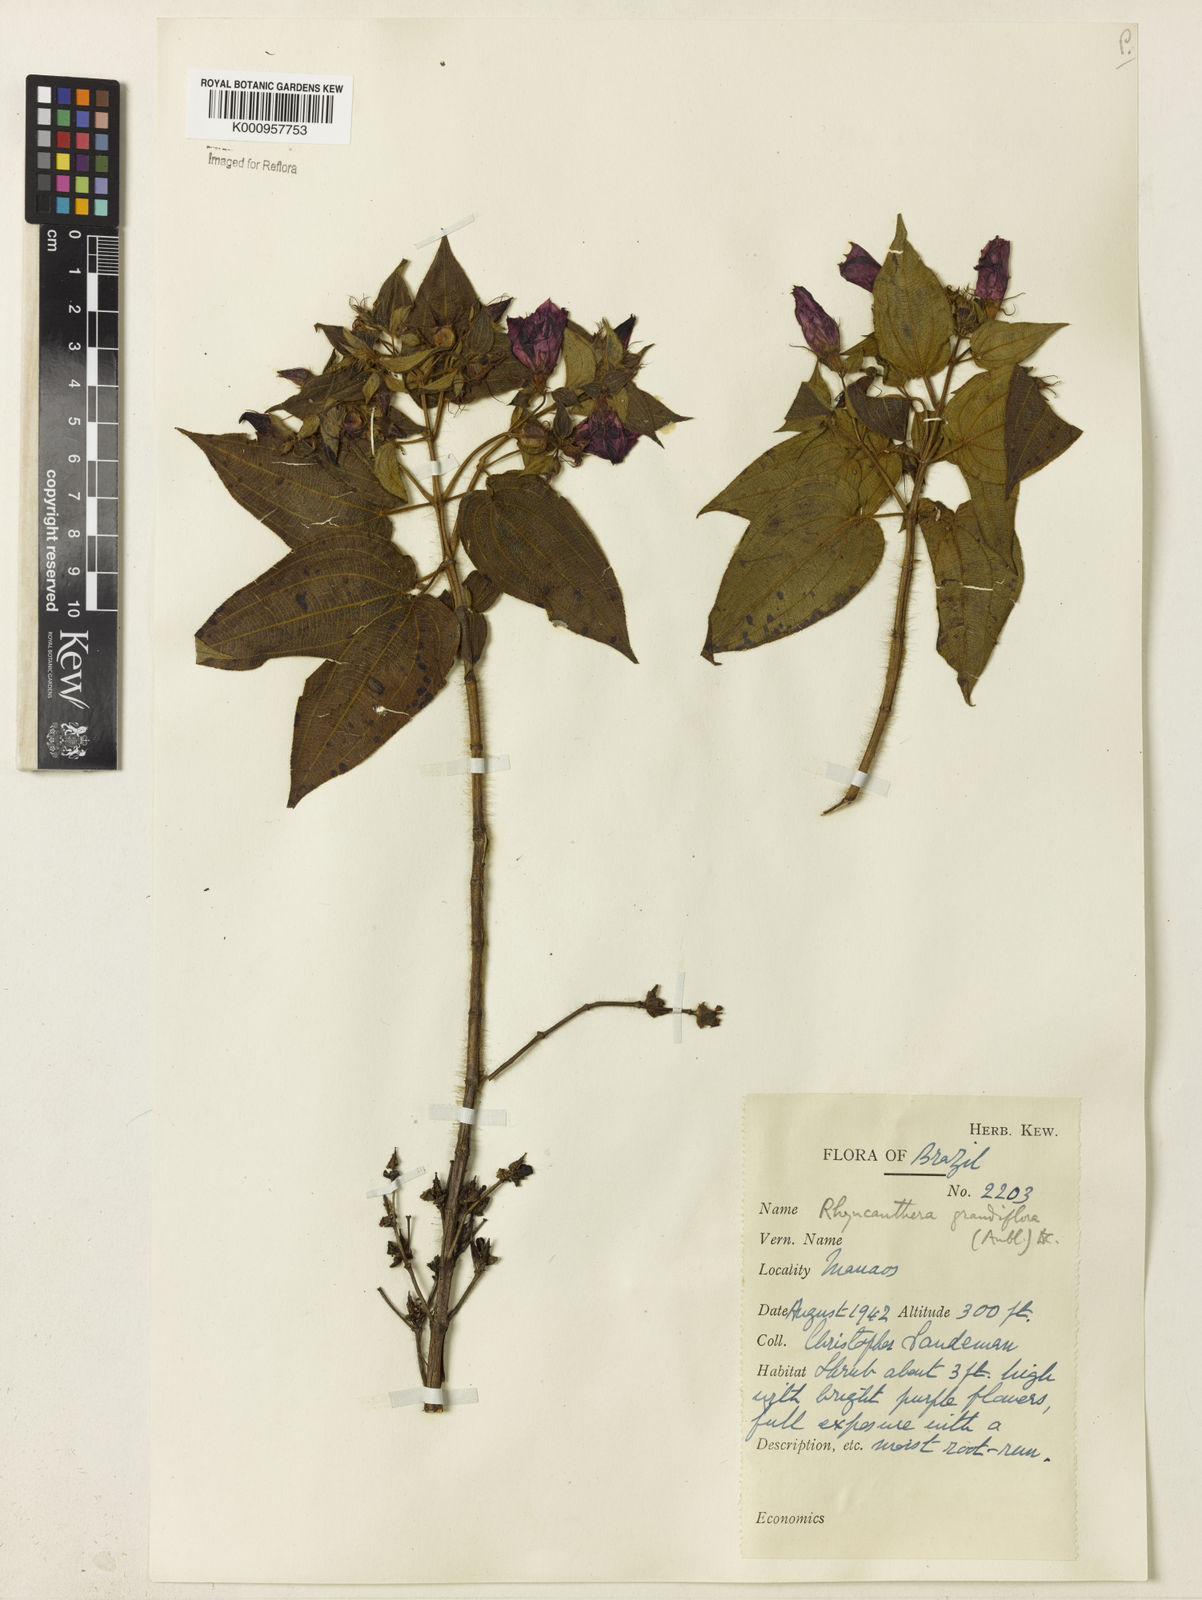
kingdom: Plantae
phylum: Tracheophyta
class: Magnoliopsida
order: Myrtales
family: Melastomataceae
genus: Rhynchanthera
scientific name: Rhynchanthera grandiflora
